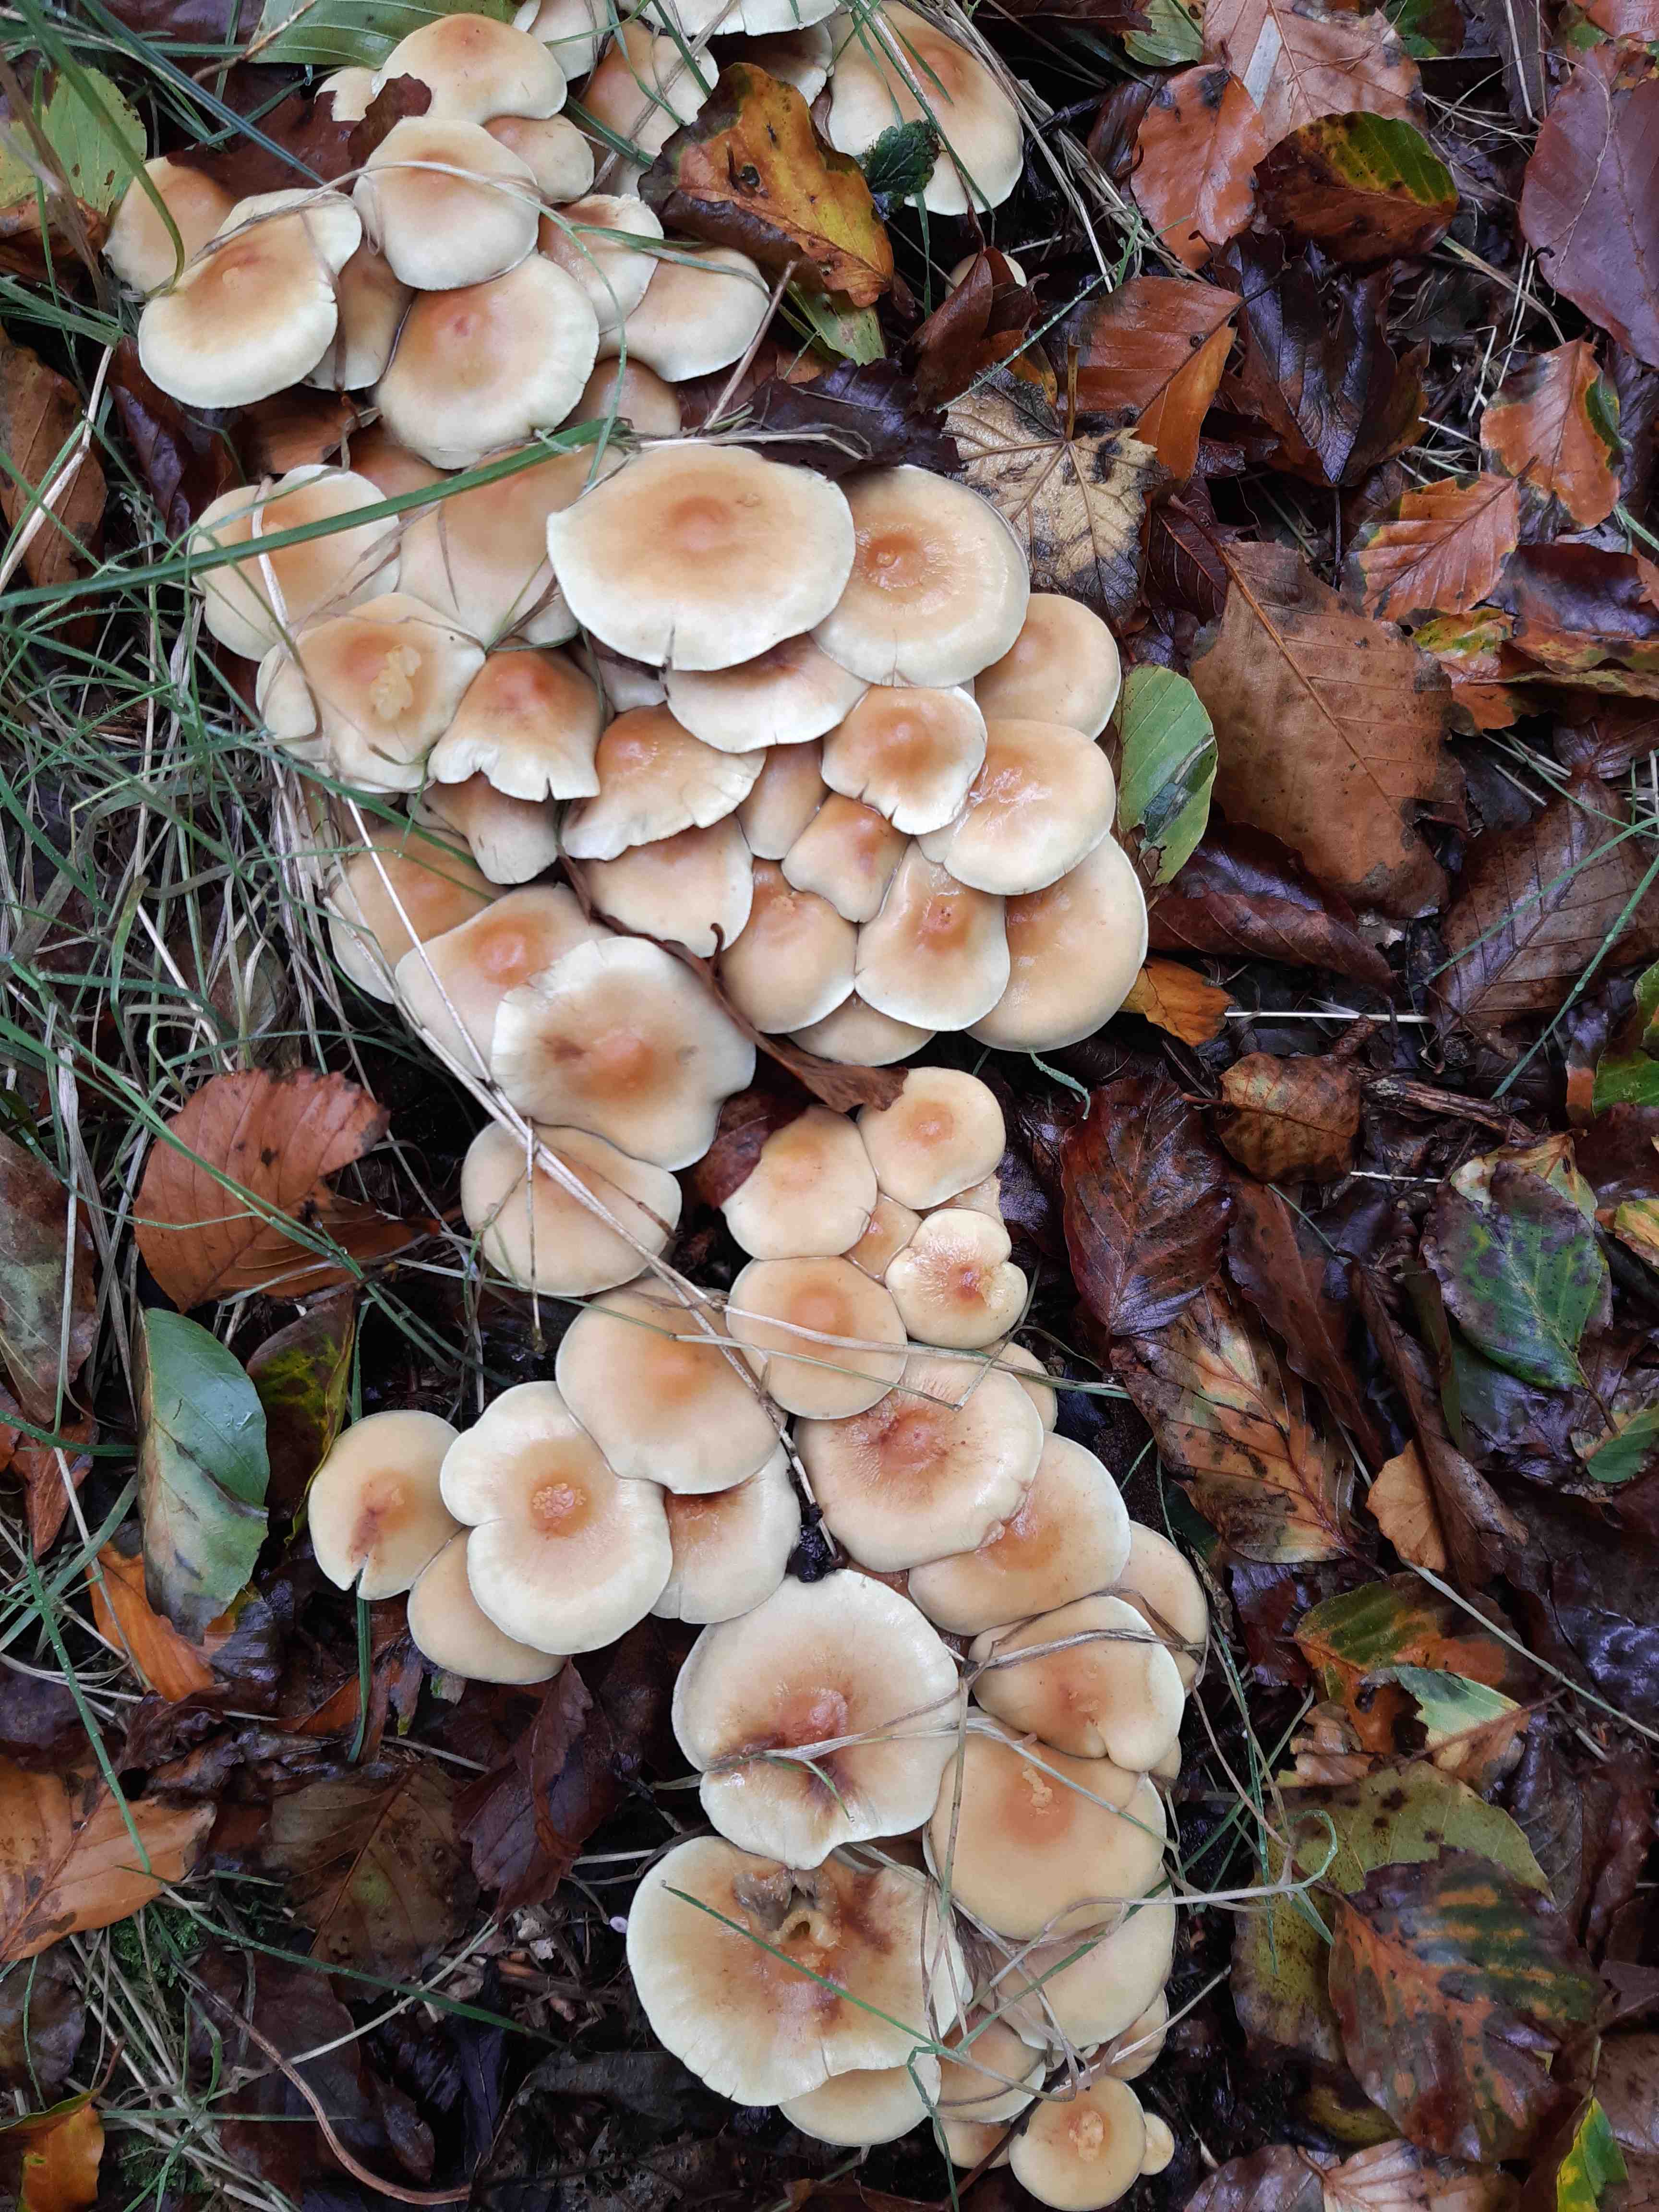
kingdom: Fungi
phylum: Basidiomycota
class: Agaricomycetes
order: Agaricales
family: Strophariaceae
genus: Hypholoma
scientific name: Hypholoma fasciculare
